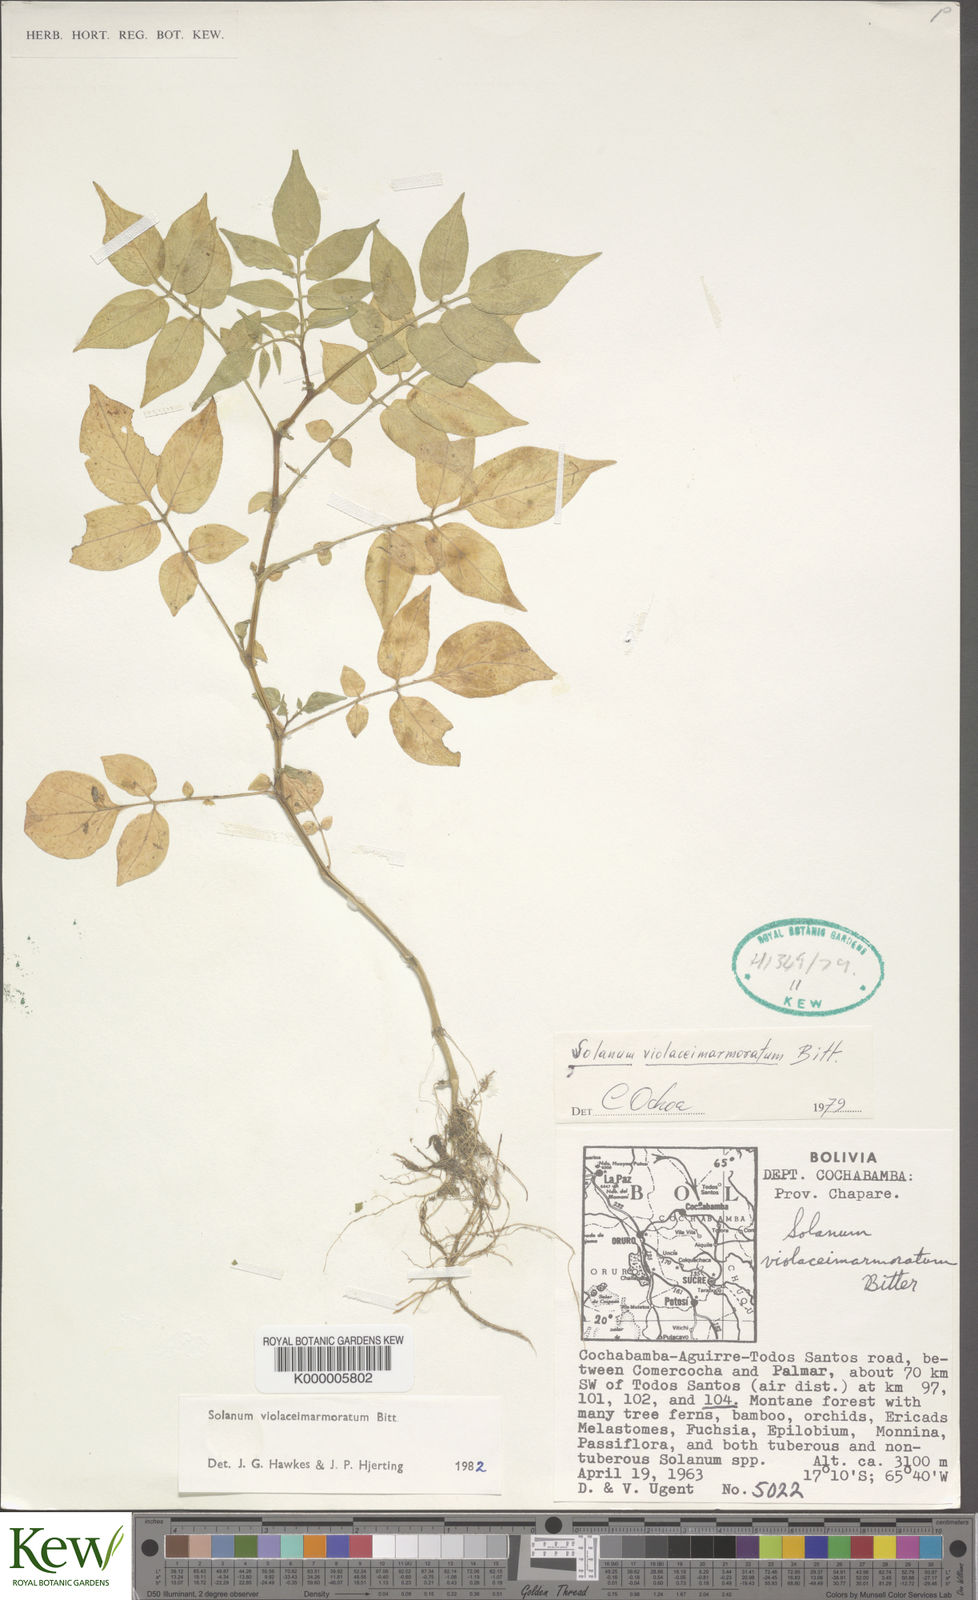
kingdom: Plantae
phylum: Tracheophyta
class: Magnoliopsida
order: Solanales
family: Solanaceae
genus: Solanum
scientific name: Solanum violaceimarmoratum
